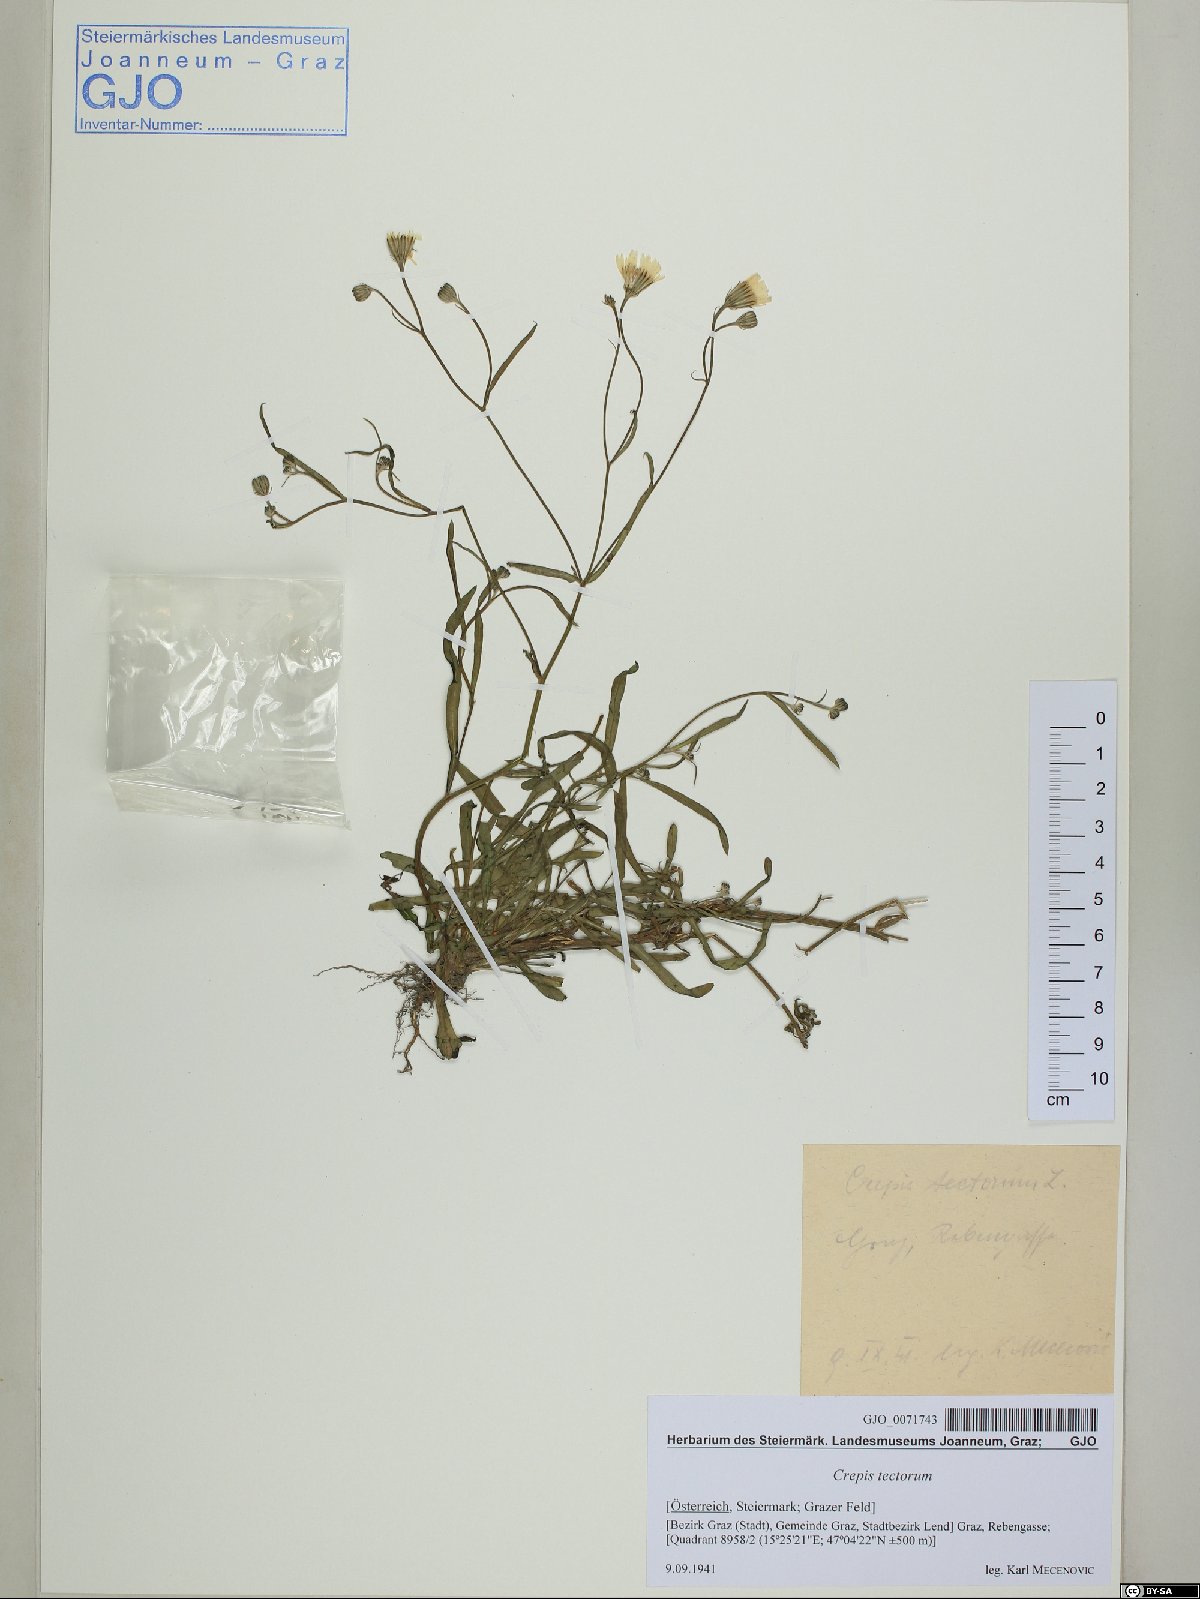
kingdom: Plantae
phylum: Tracheophyta
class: Magnoliopsida
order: Asterales
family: Asteraceae
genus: Crepis
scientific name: Crepis tectorum
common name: Narrow-leaved hawk's-beard
